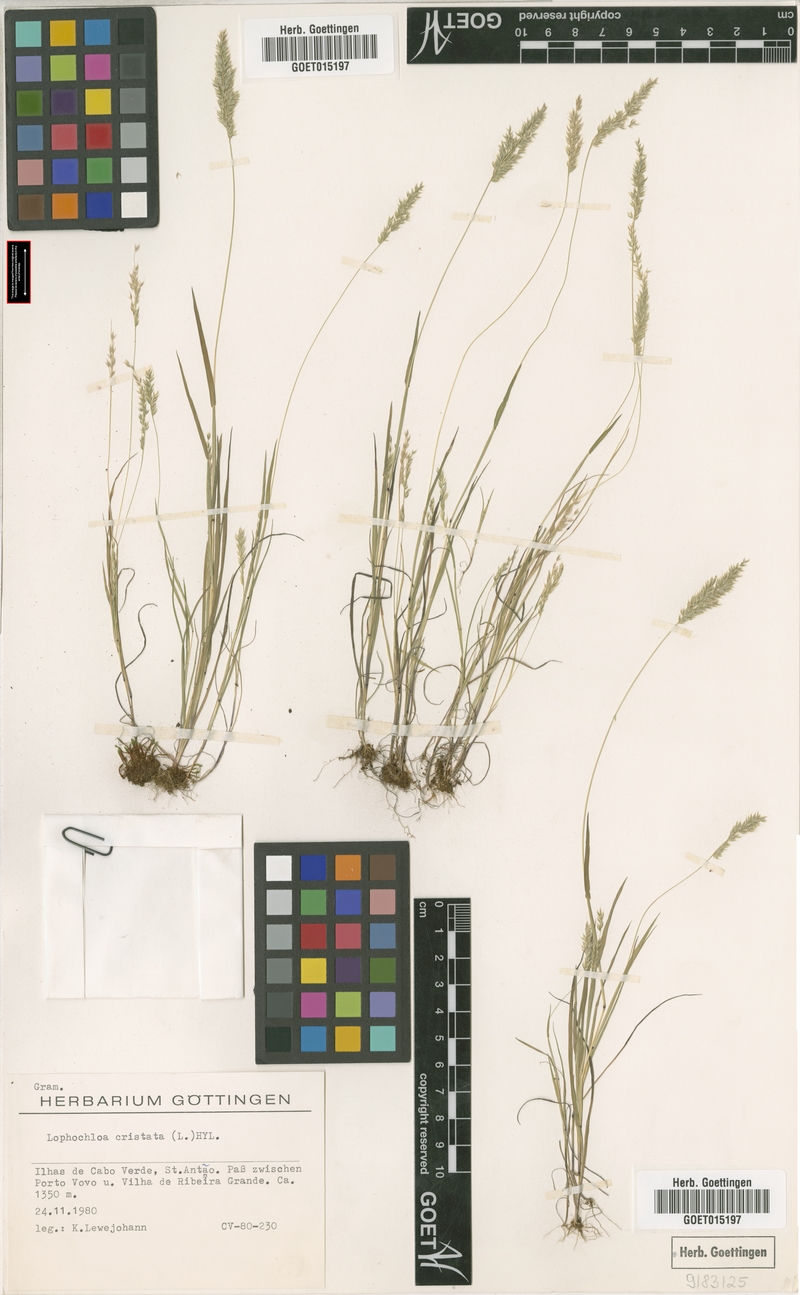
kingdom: Plantae
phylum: Tracheophyta
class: Liliopsida
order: Poales
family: Poaceae
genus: Rostraria
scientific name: Rostraria cristata
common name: Mediterranean hair-grass
